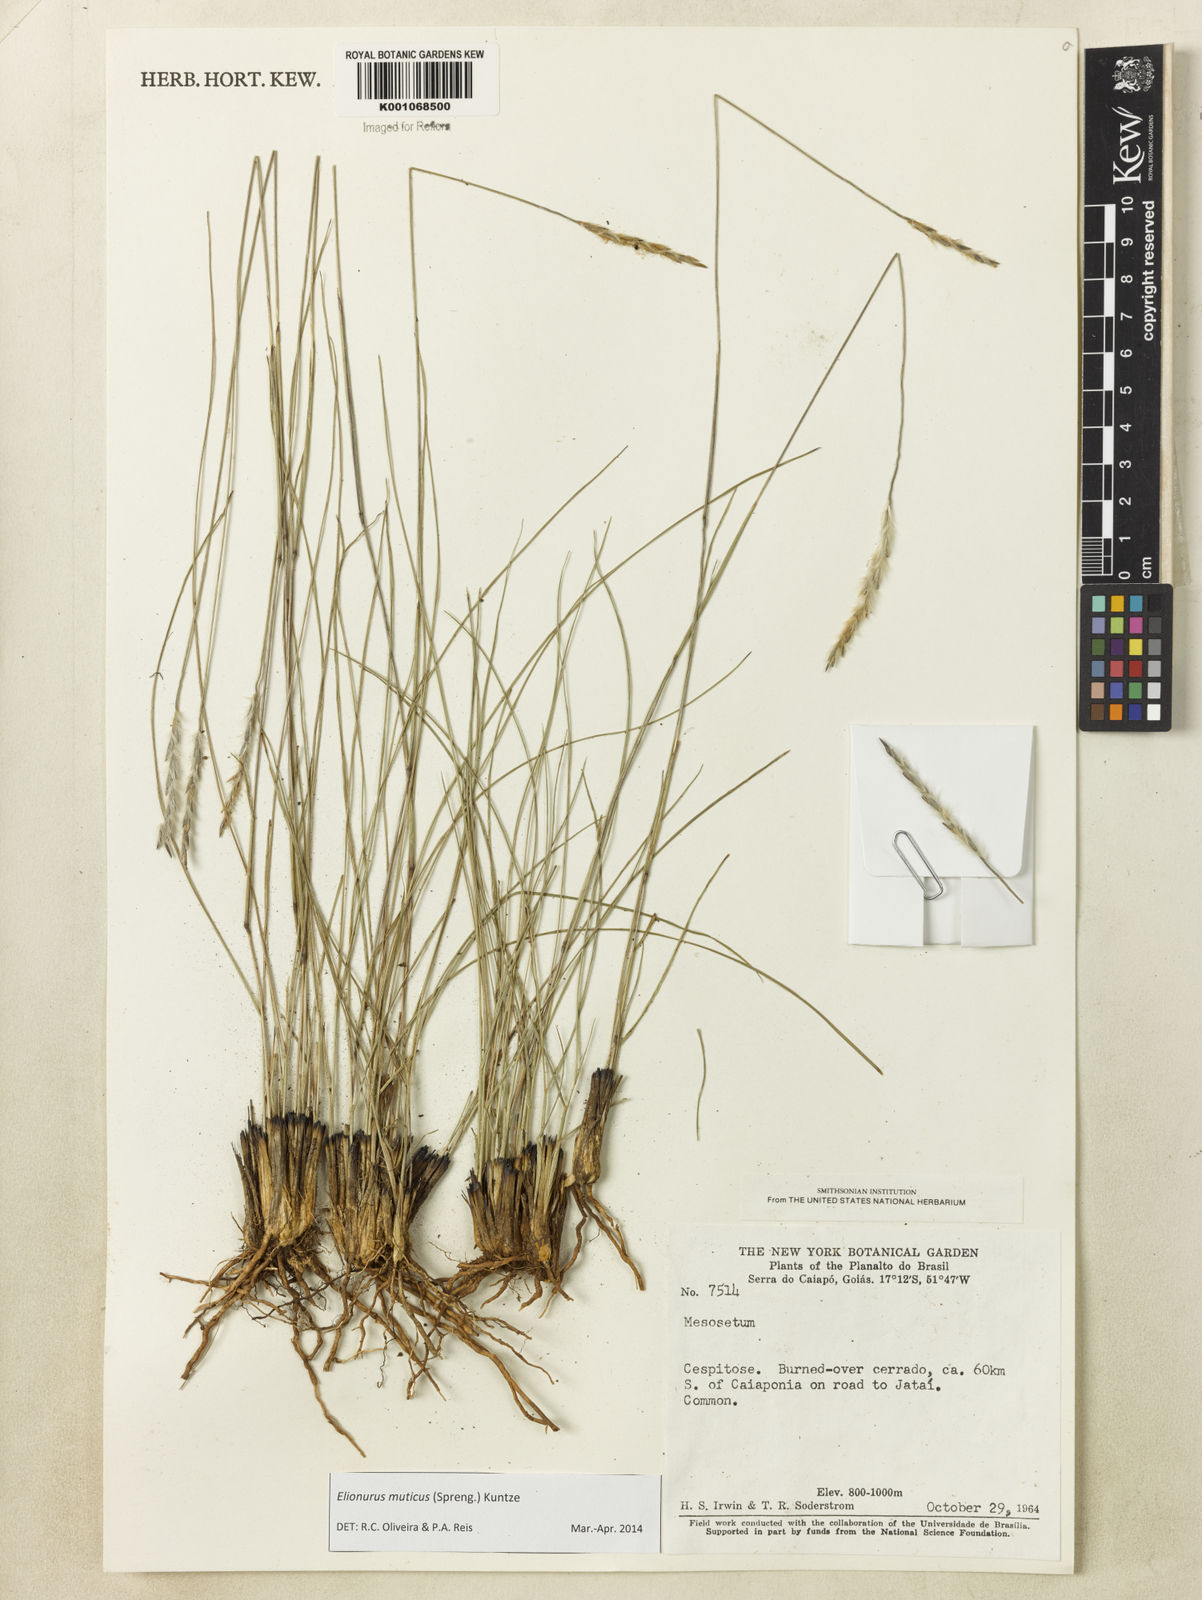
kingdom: Plantae
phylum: Tracheophyta
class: Liliopsida
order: Poales
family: Poaceae
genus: Elionurus
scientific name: Elionurus muticus
